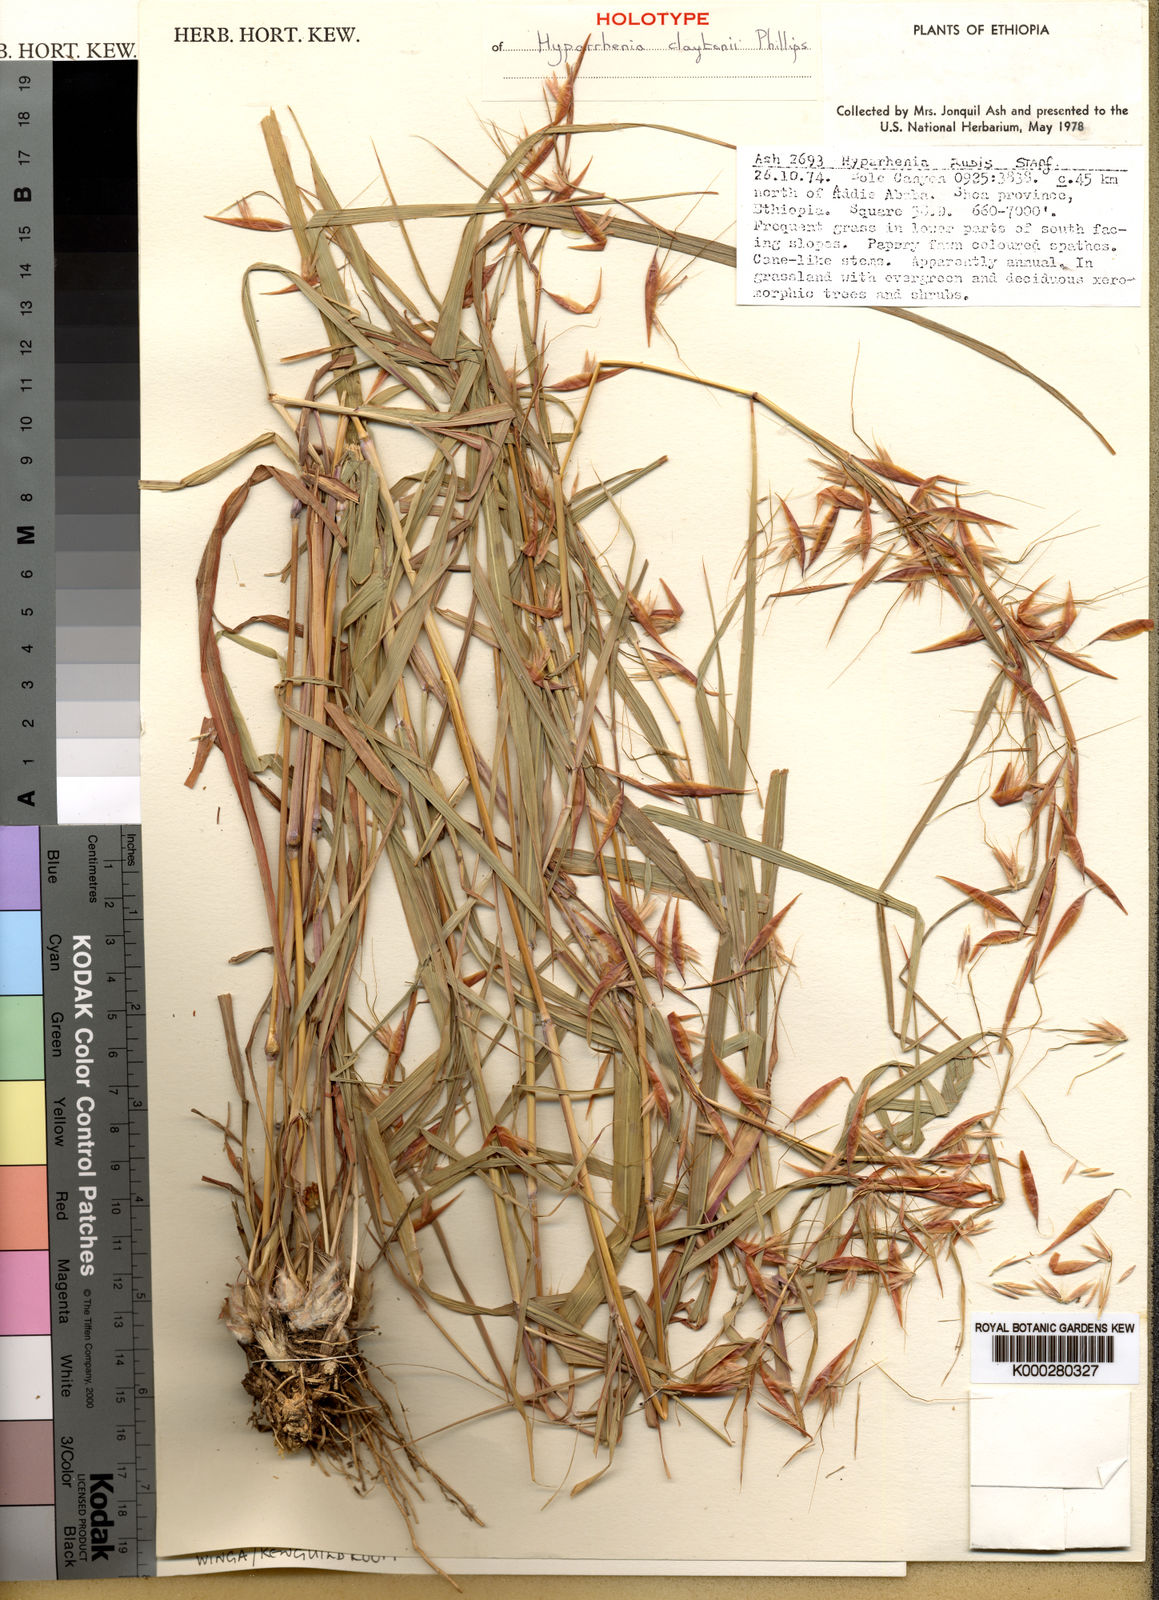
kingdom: Plantae
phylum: Tracheophyta
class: Liliopsida
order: Poales
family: Poaceae
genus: Hyparrhenia
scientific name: Hyparrhenia claytonii
